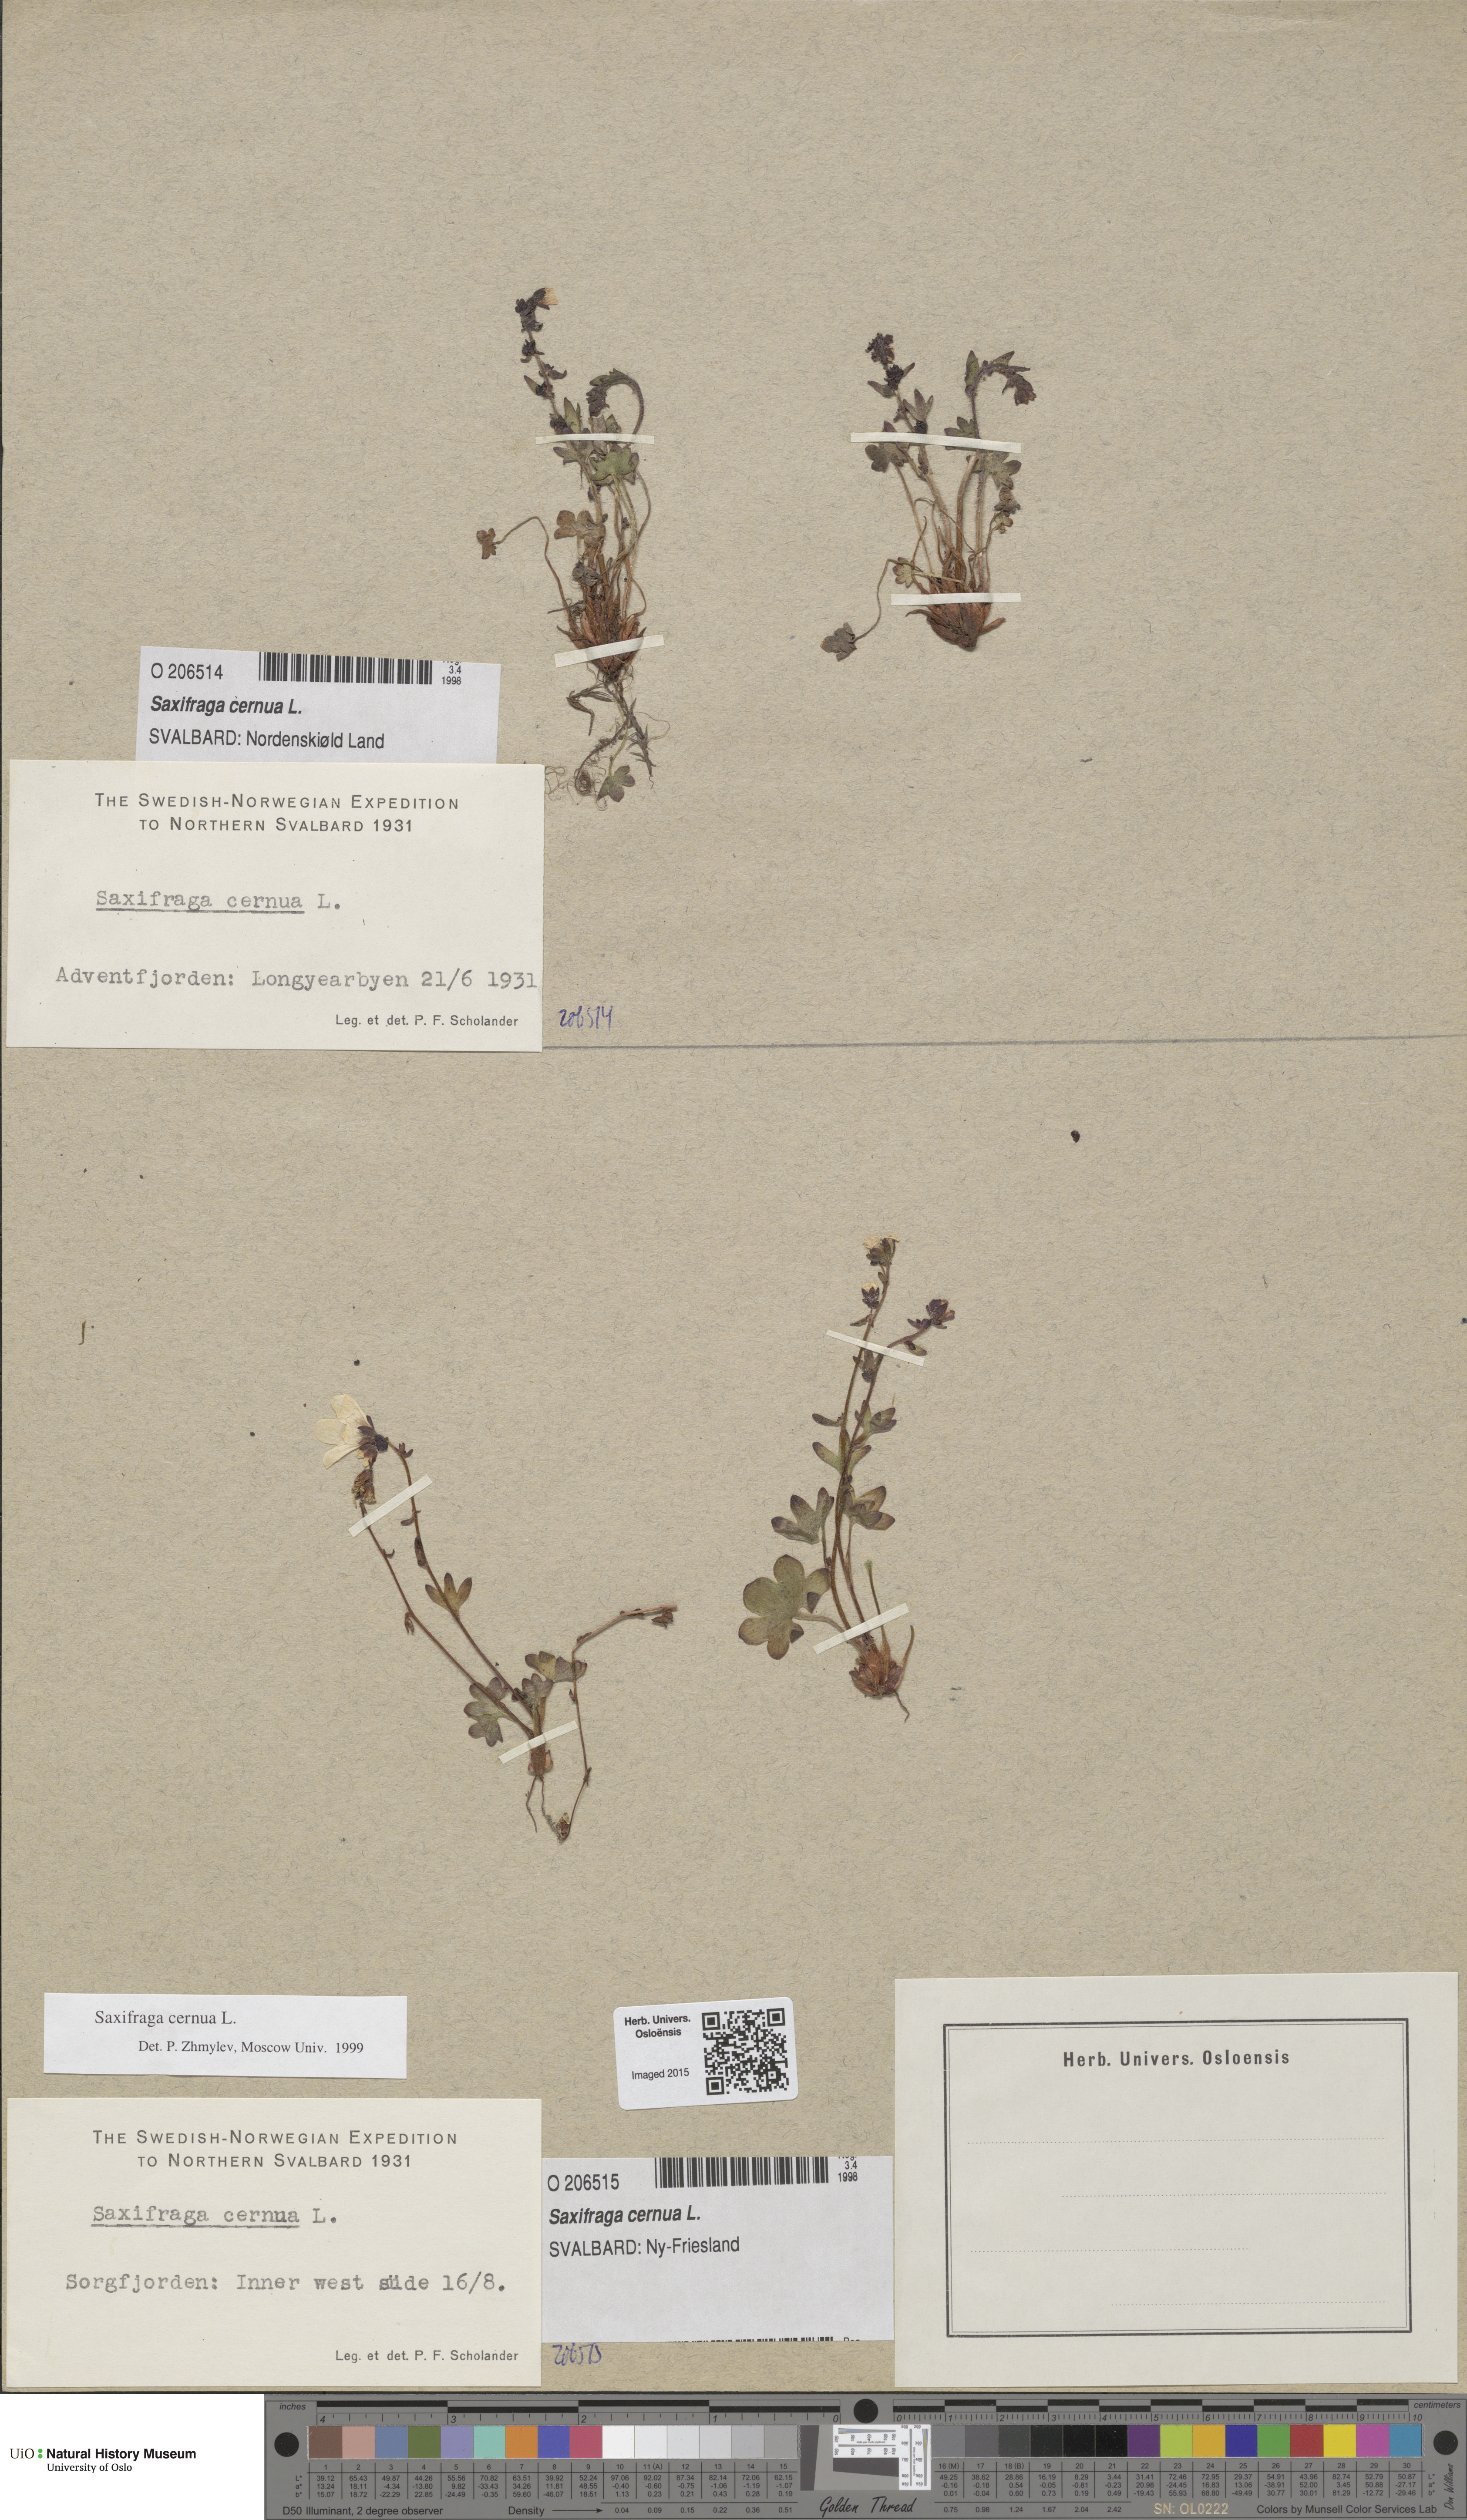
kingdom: Plantae
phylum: Tracheophyta
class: Magnoliopsida
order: Saxifragales
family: Saxifragaceae
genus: Saxifraga
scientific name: Saxifraga cernua
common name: Drooping saxifrage
